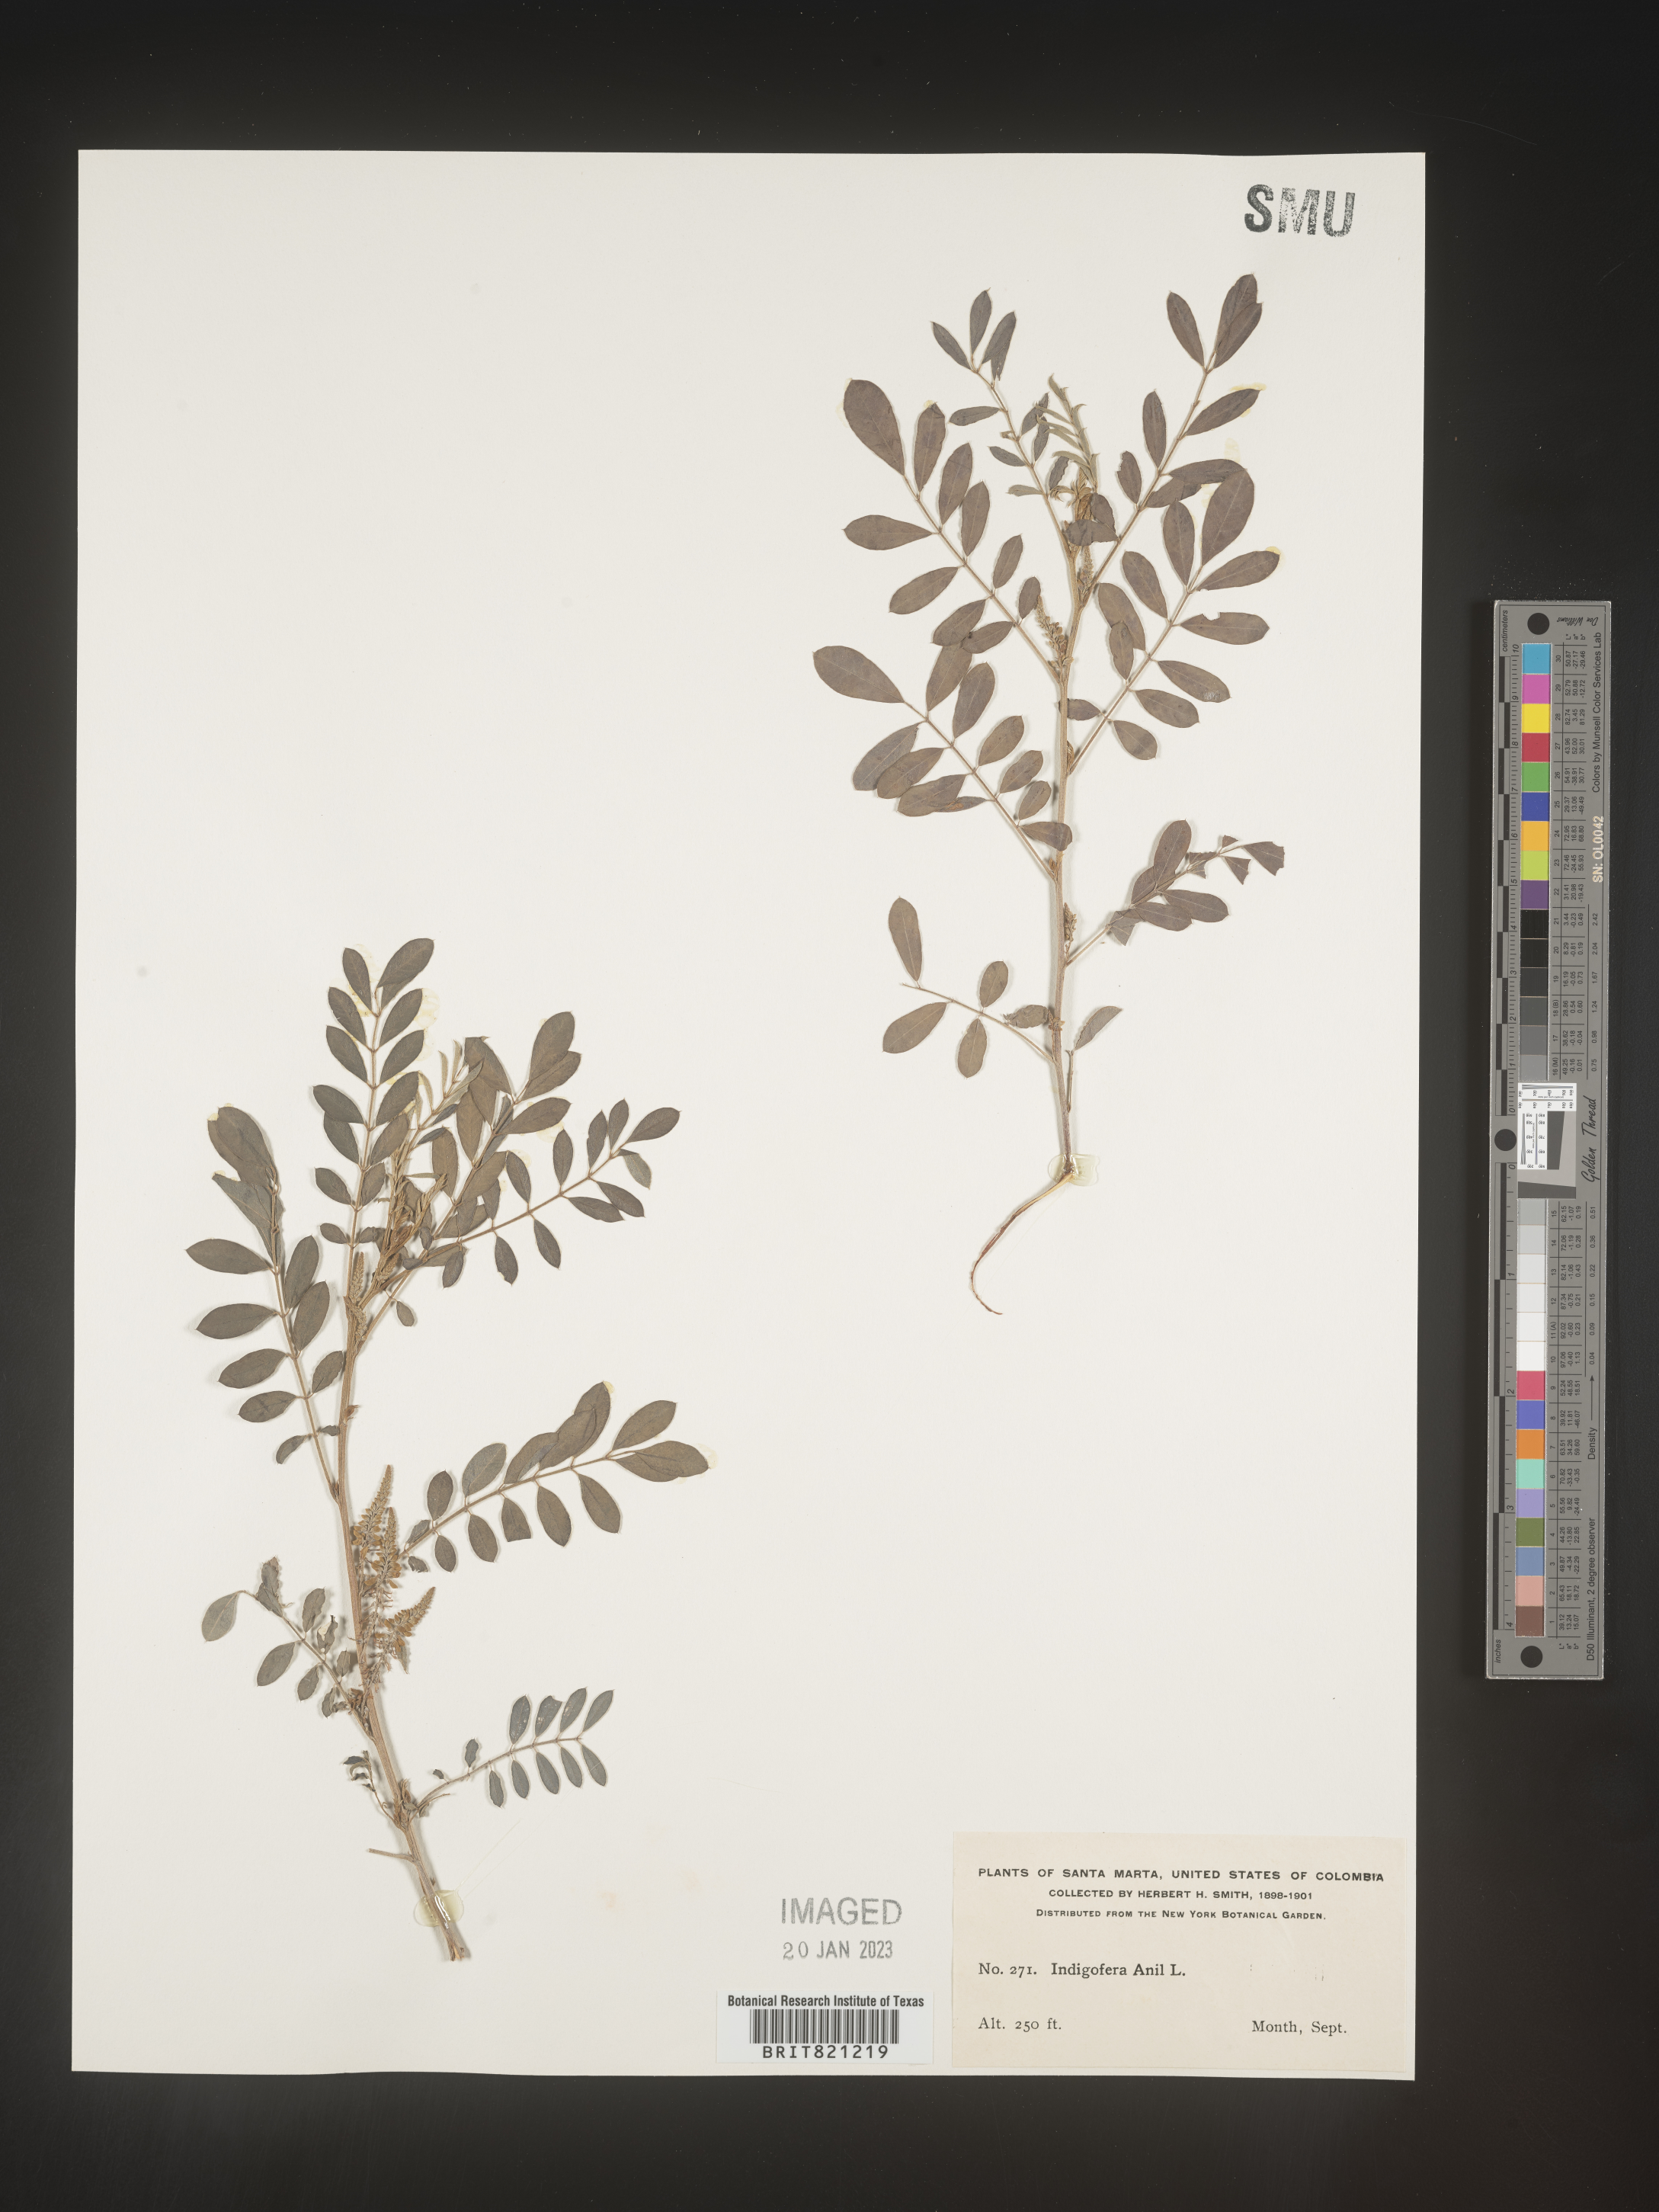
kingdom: Plantae
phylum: Tracheophyta
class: Magnoliopsida
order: Fabales
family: Fabaceae
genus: Indigofera
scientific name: Indigofera
